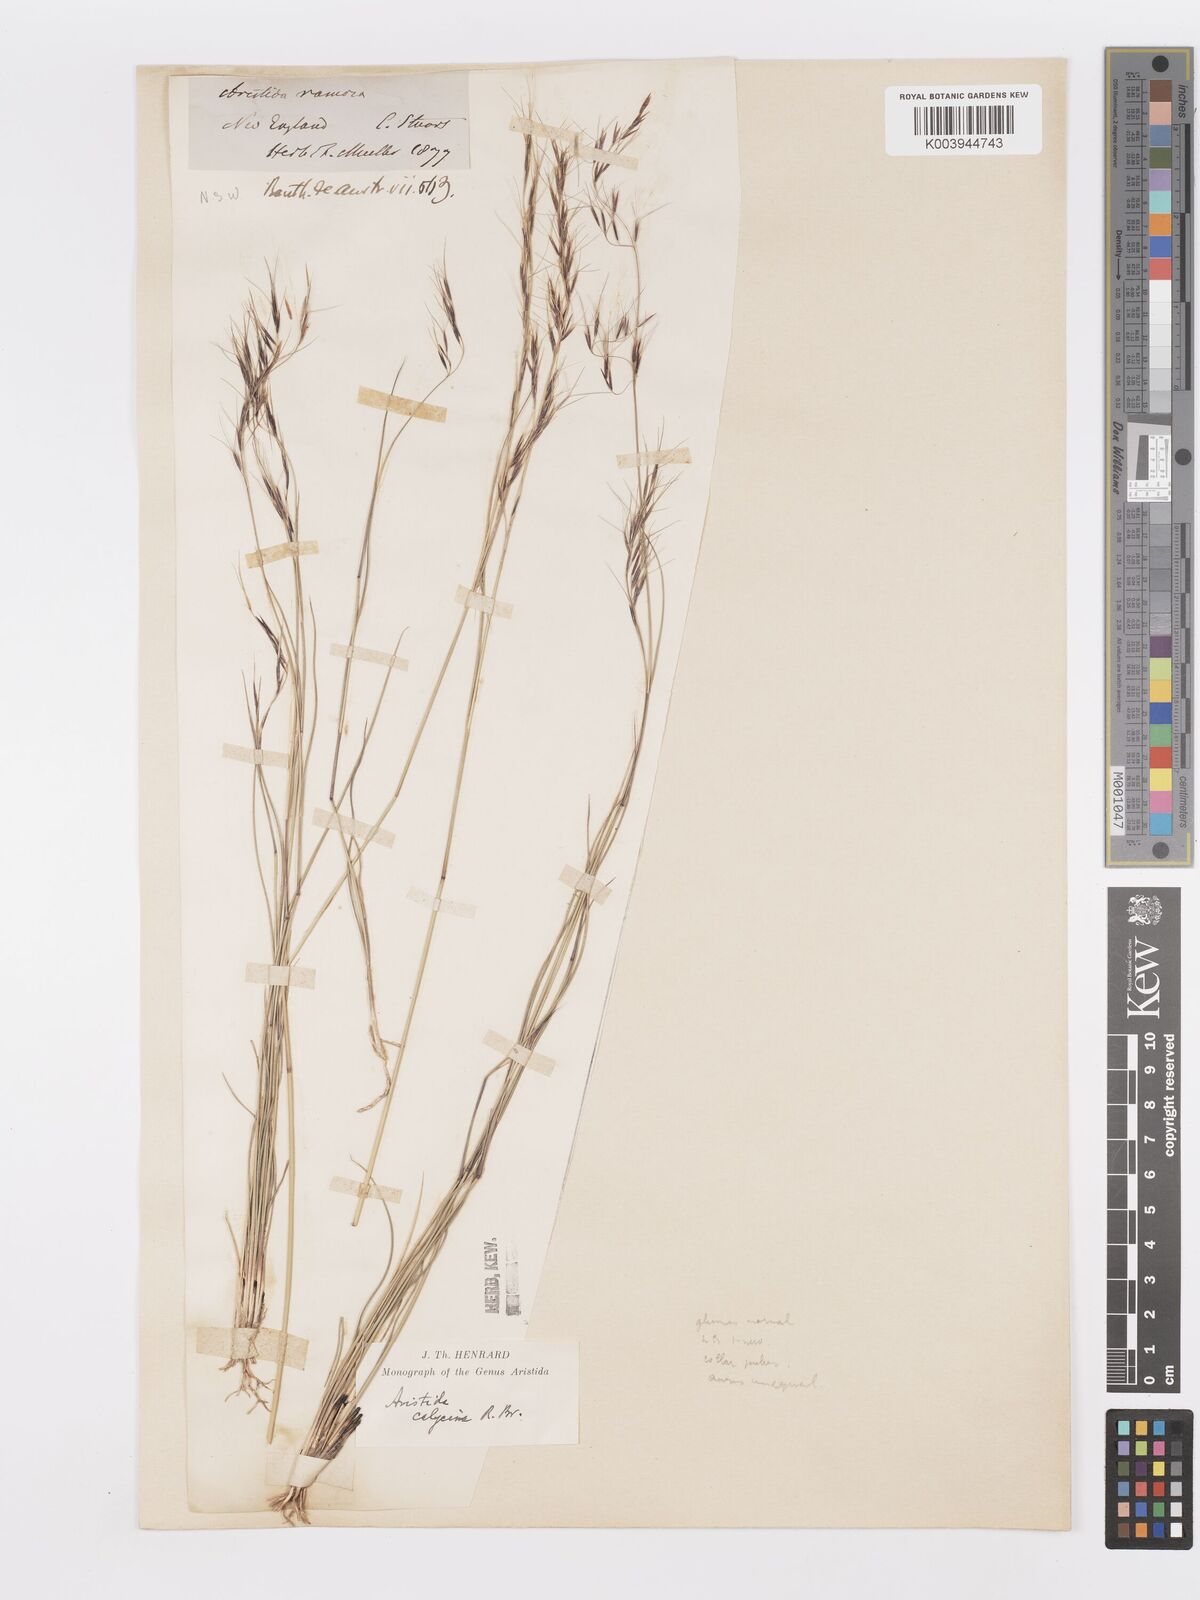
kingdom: Plantae
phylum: Tracheophyta
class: Liliopsida
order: Poales
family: Poaceae
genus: Aristida
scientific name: Aristida calycina
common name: Dark wire grass
